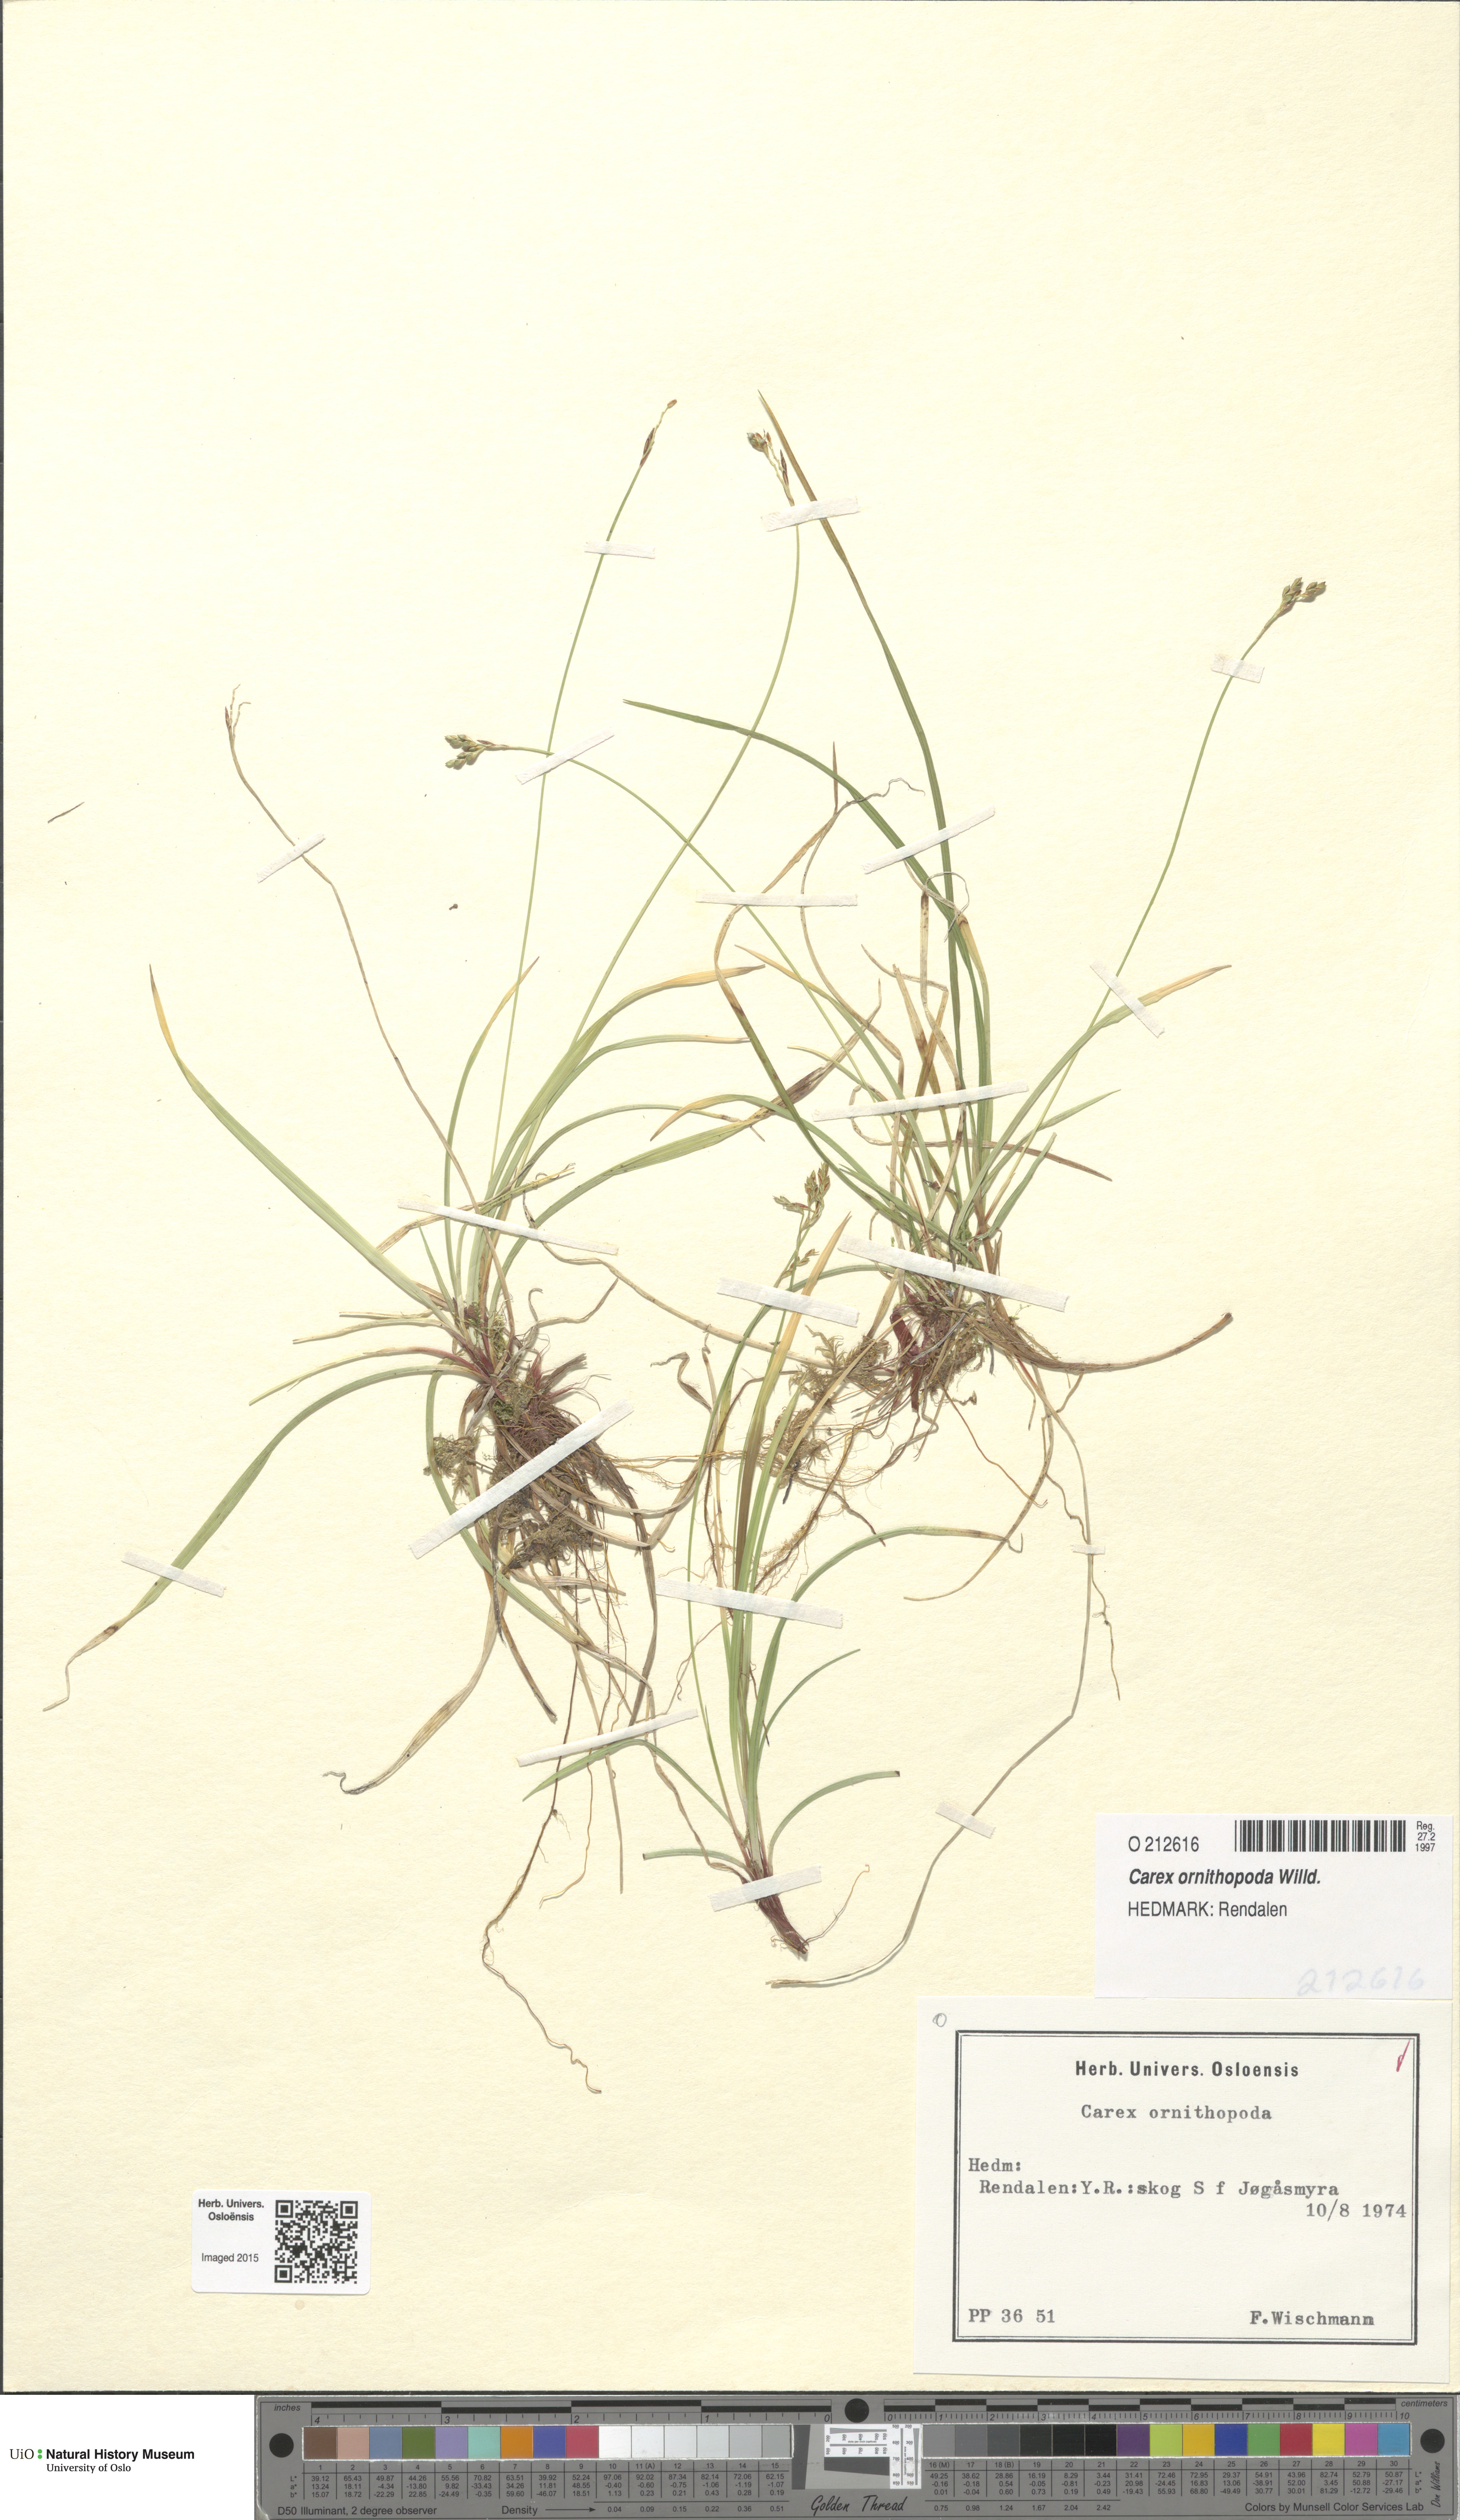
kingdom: Plantae
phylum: Tracheophyta
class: Liliopsida
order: Poales
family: Cyperaceae
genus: Carex
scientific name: Carex ornithopoda
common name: Bird's-foot sedge
